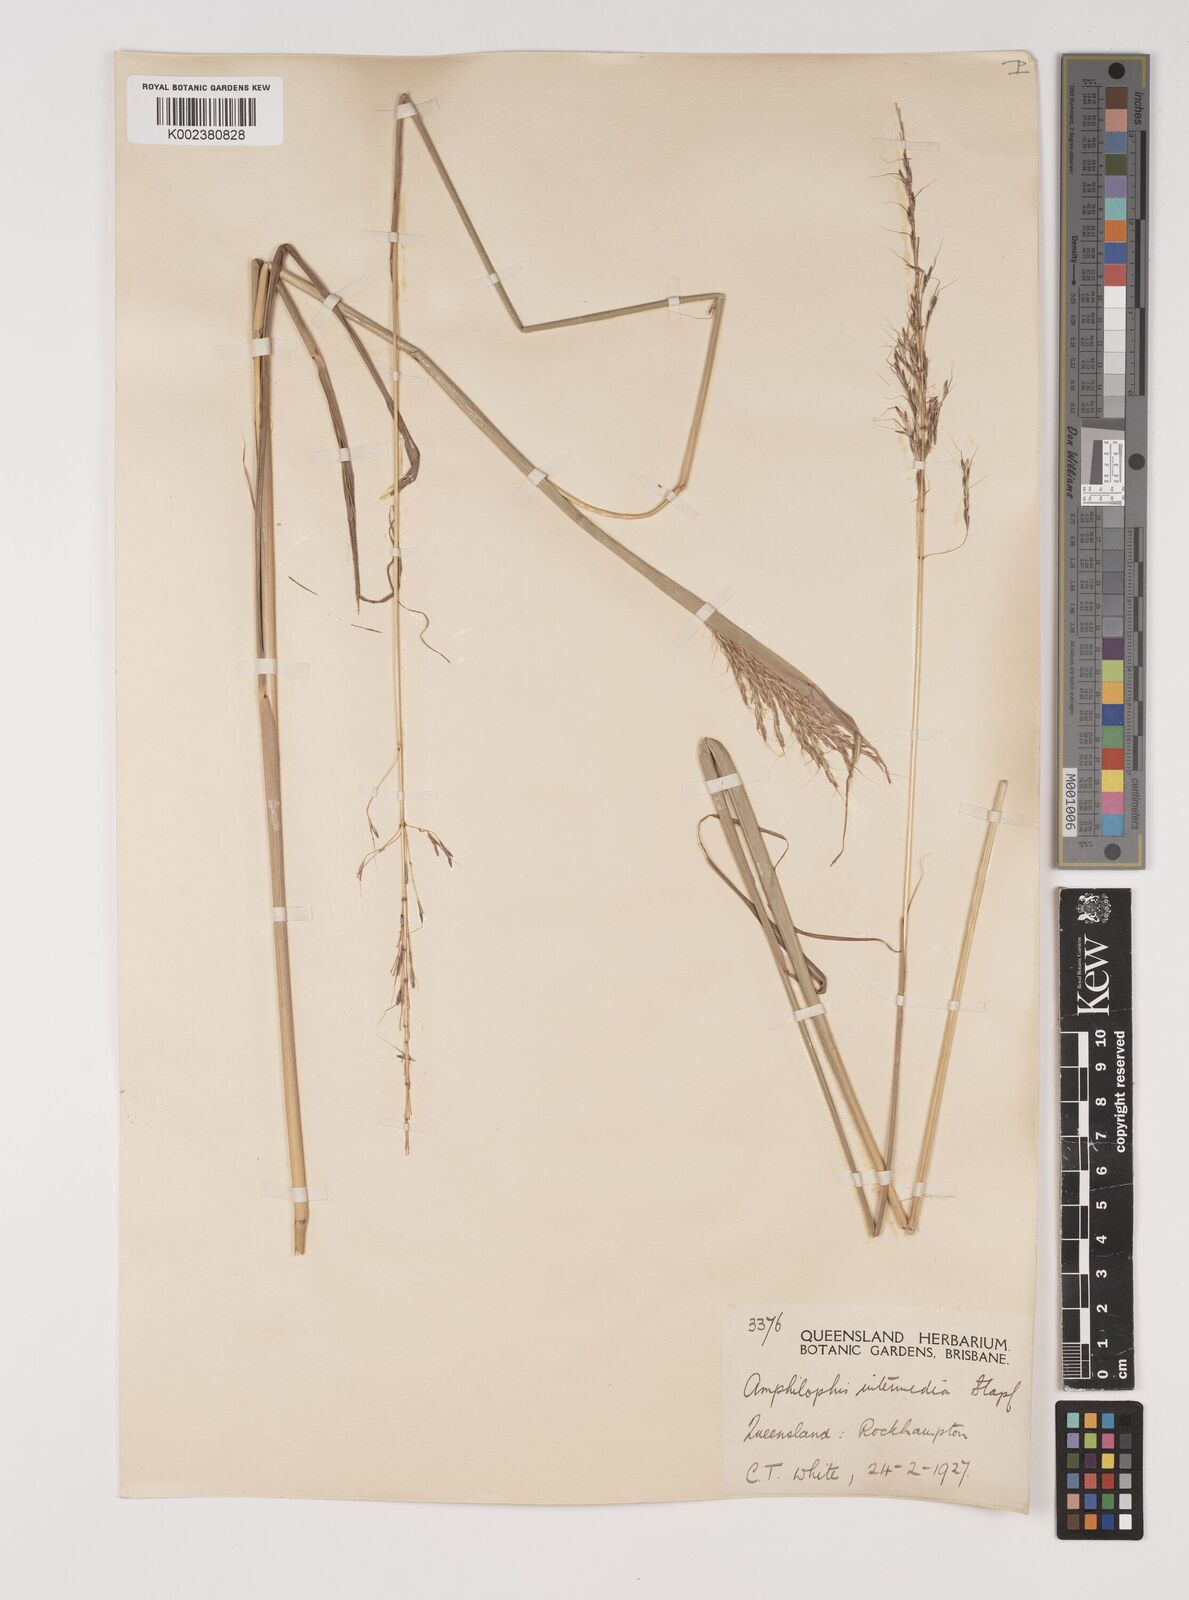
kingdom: Plantae
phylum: Tracheophyta
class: Liliopsida
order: Poales
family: Poaceae
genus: Bothriochloa
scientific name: Bothriochloa bladhii
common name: Caucasian bluestem
